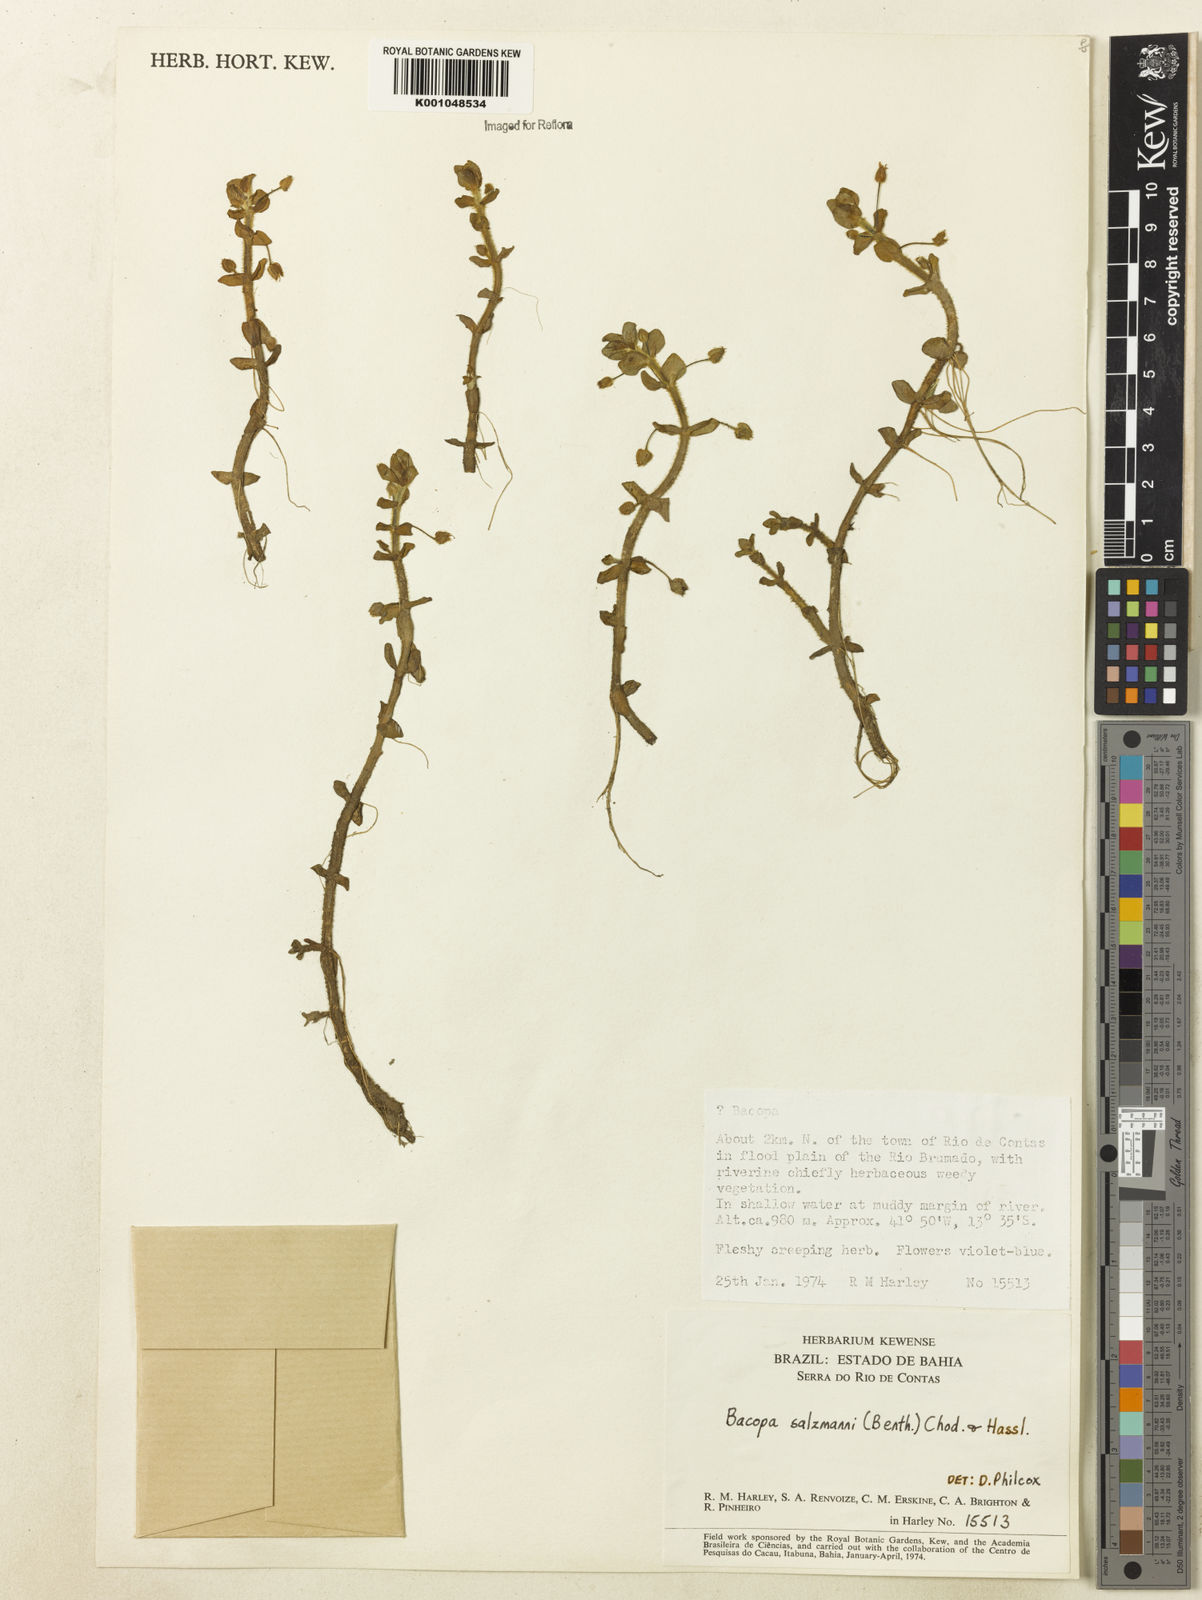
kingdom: Plantae
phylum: Tracheophyta
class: Magnoliopsida
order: Lamiales
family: Plantaginaceae
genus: Bacopa
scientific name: Bacopa salzmannii
